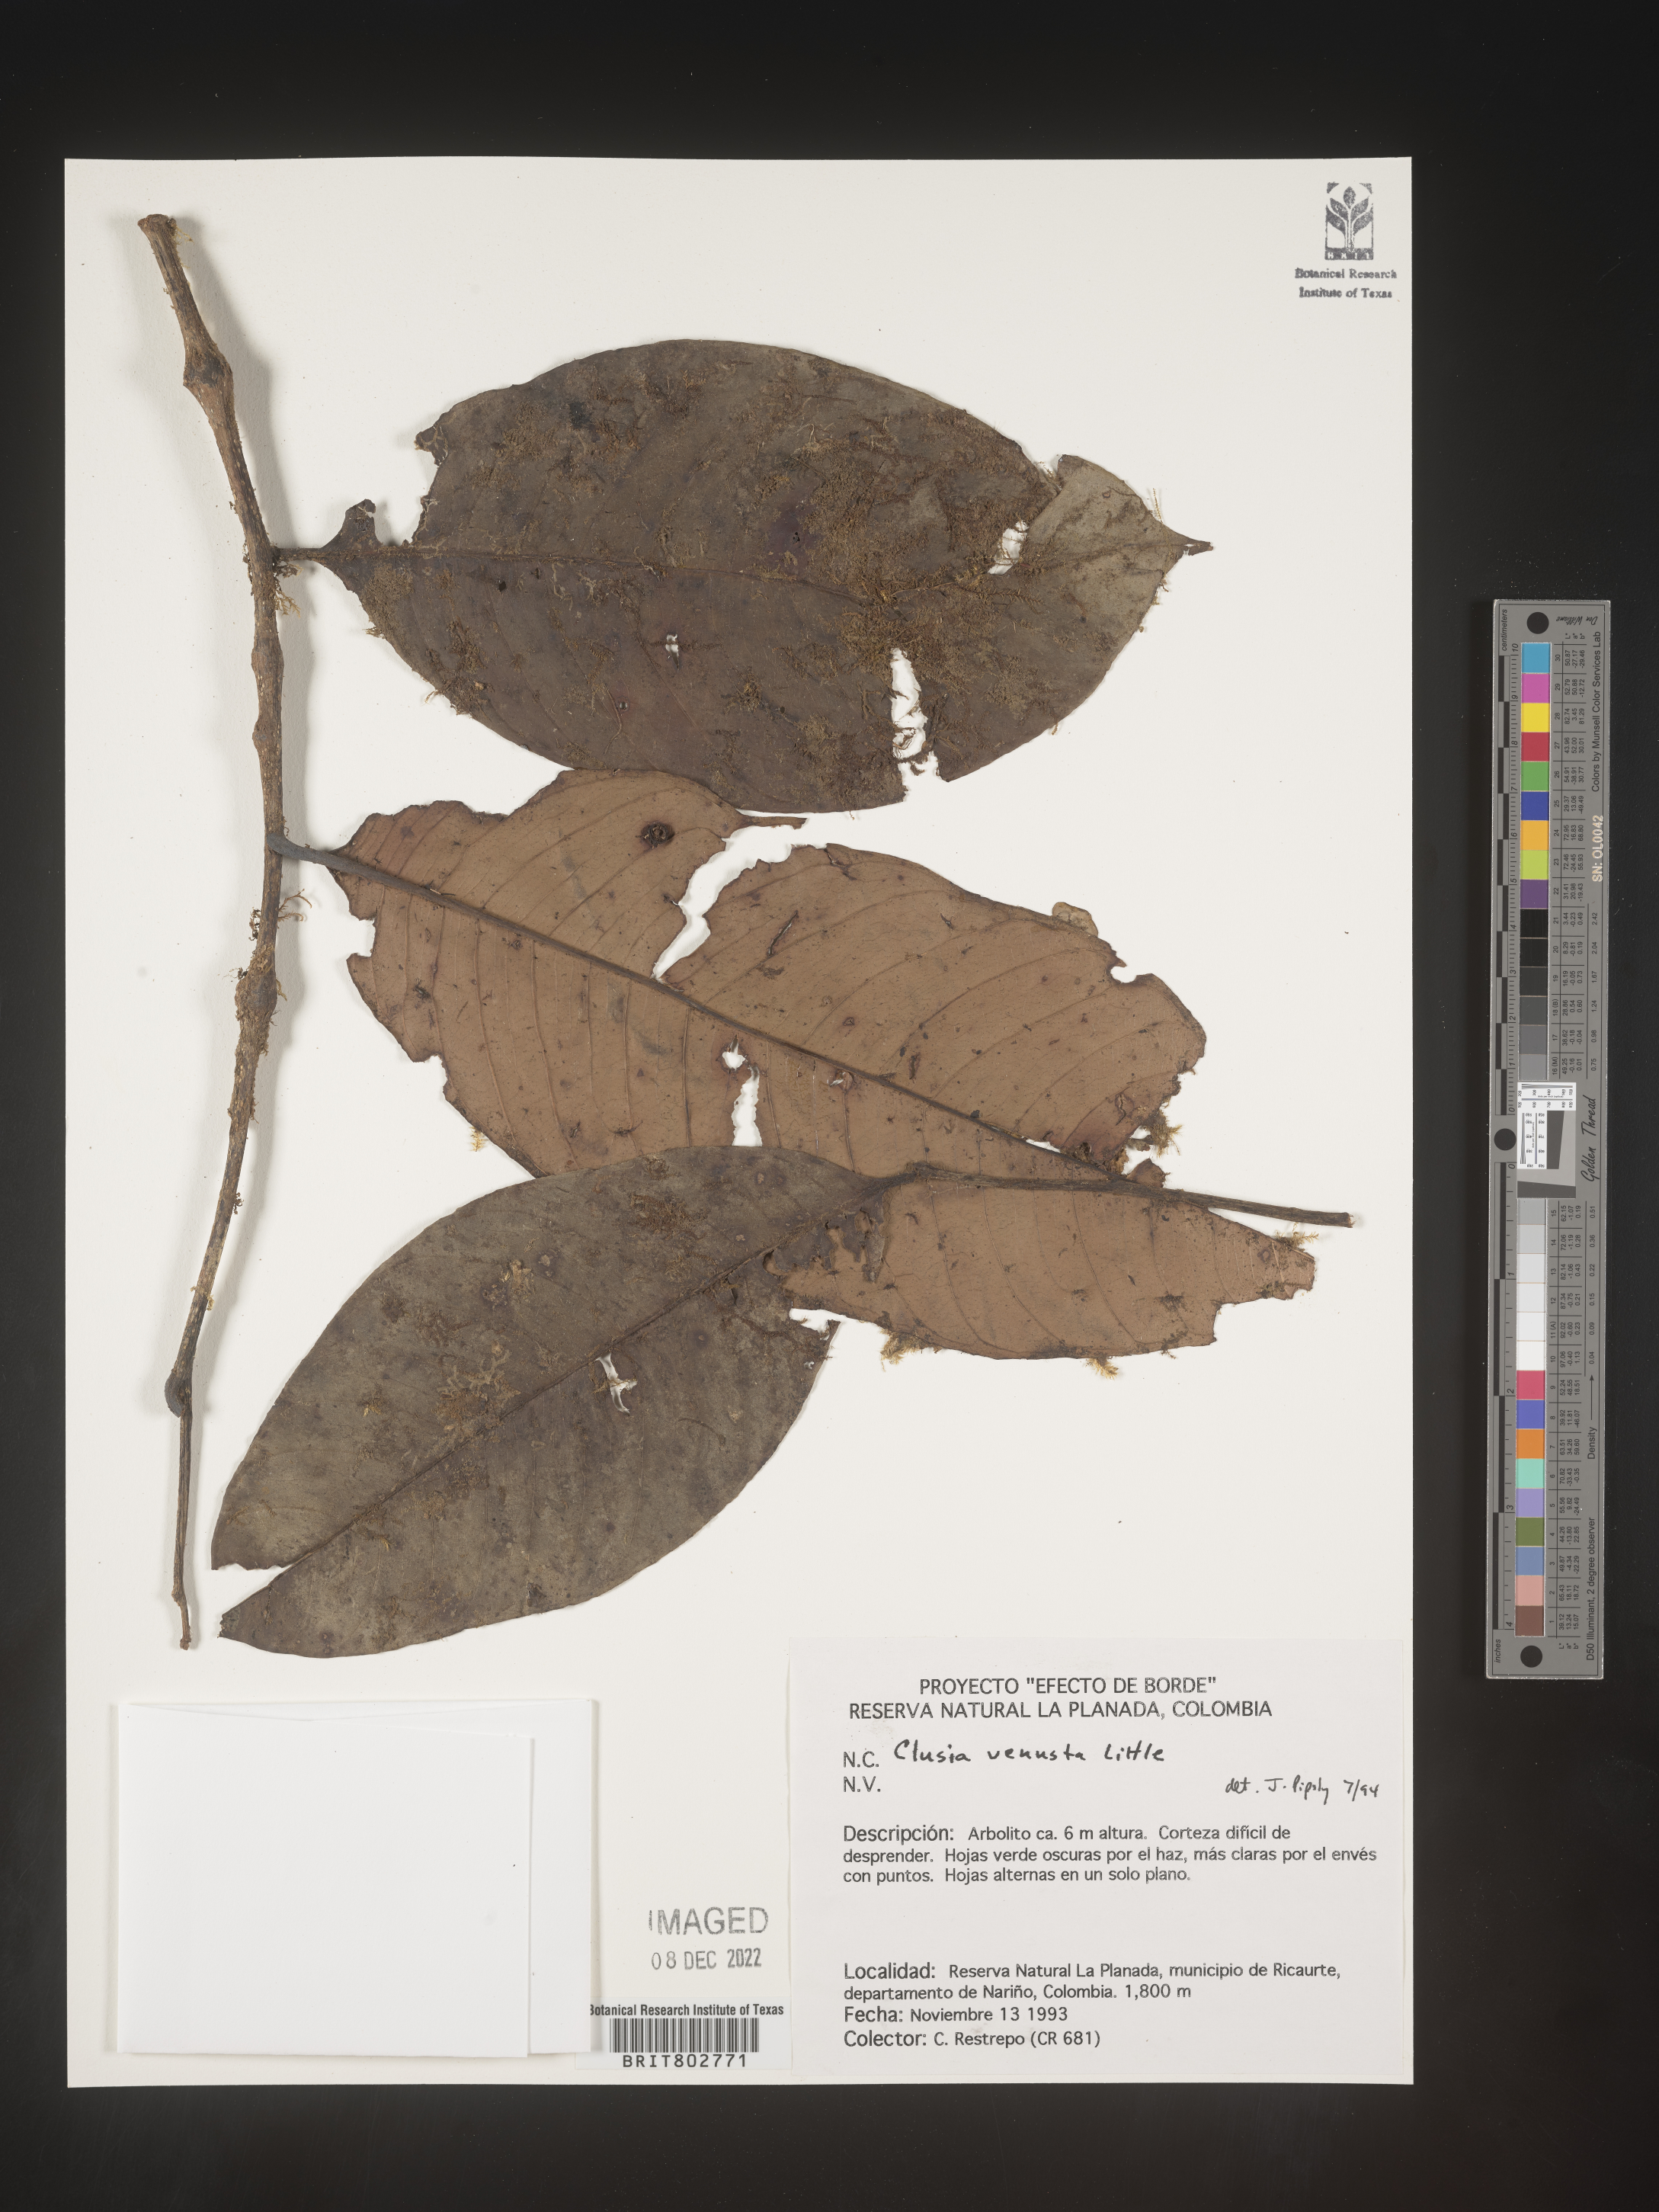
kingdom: Plantae
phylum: Tracheophyta
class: Magnoliopsida
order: Malpighiales
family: Clusiaceae
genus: Clusia
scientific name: Clusia venusta
